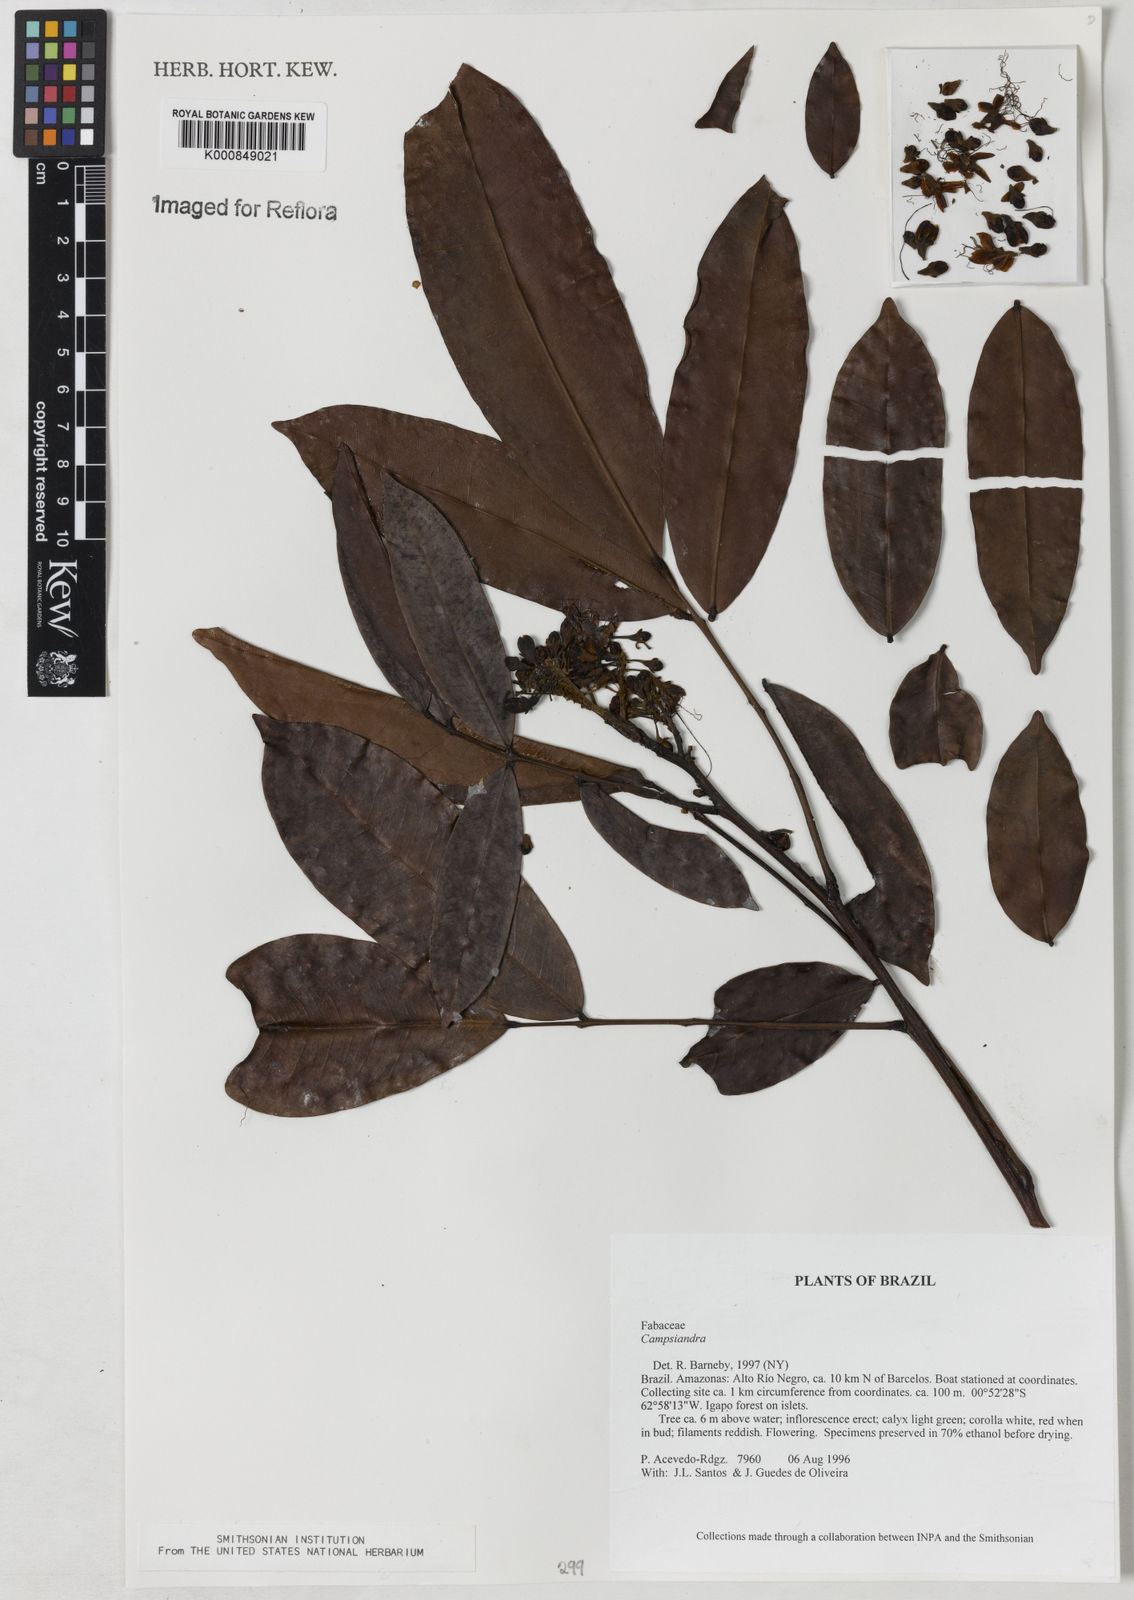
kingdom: Plantae
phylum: Tracheophyta
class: Magnoliopsida
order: Fabales
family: Fabaceae
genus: Campsiandra
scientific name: Campsiandra
